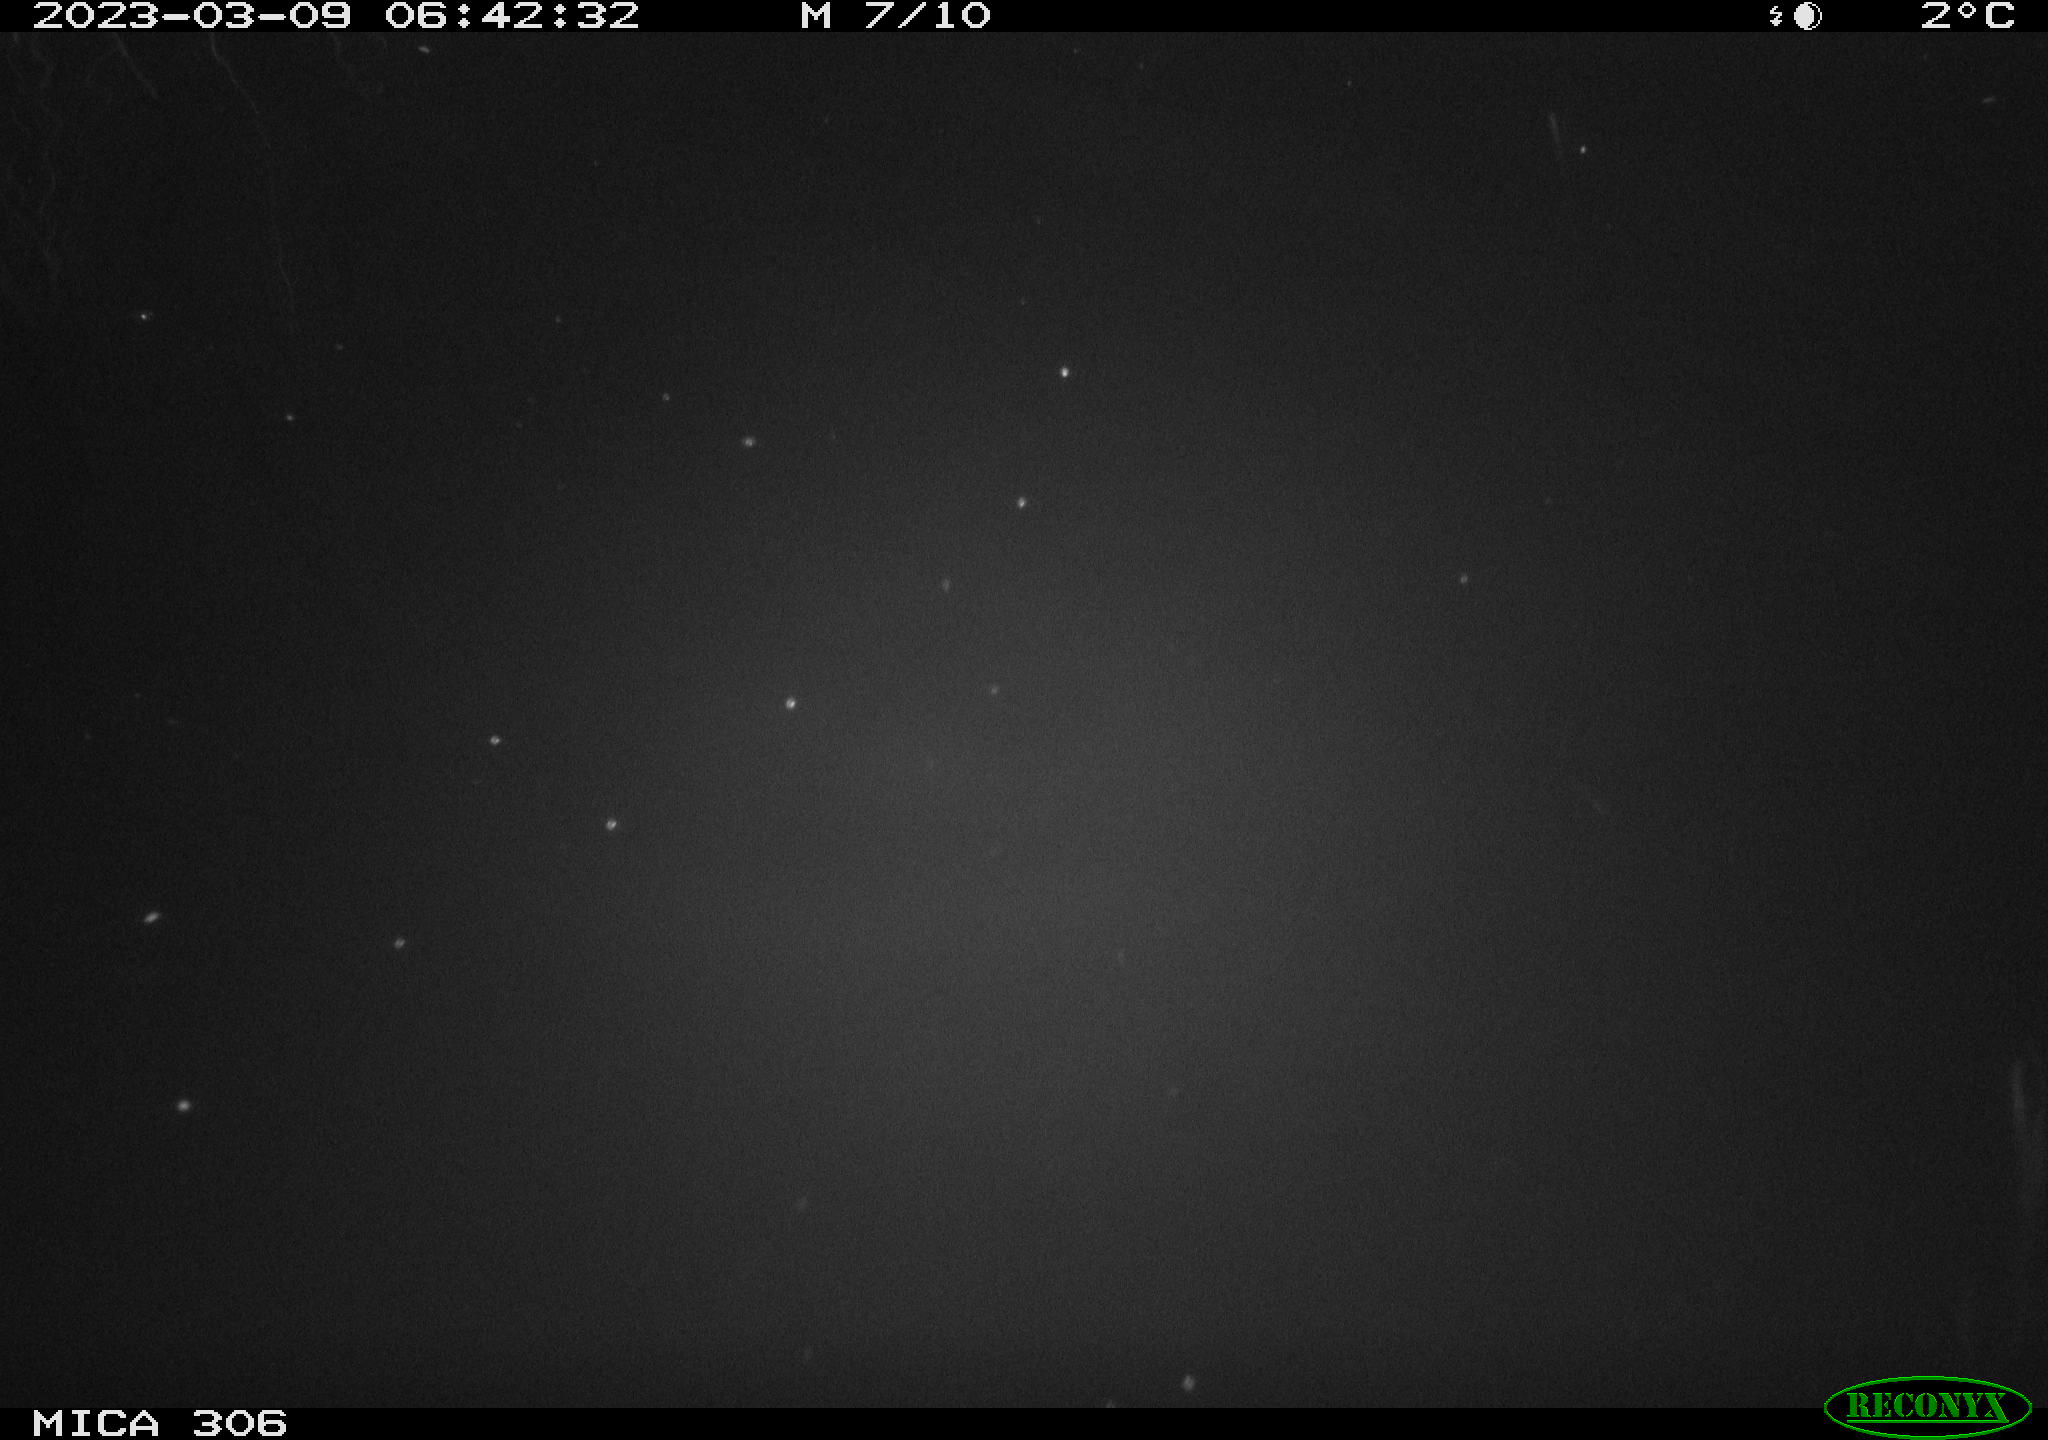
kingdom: Animalia
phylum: Chordata
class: Aves
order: Anseriformes
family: Anatidae
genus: Anas
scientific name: Anas
